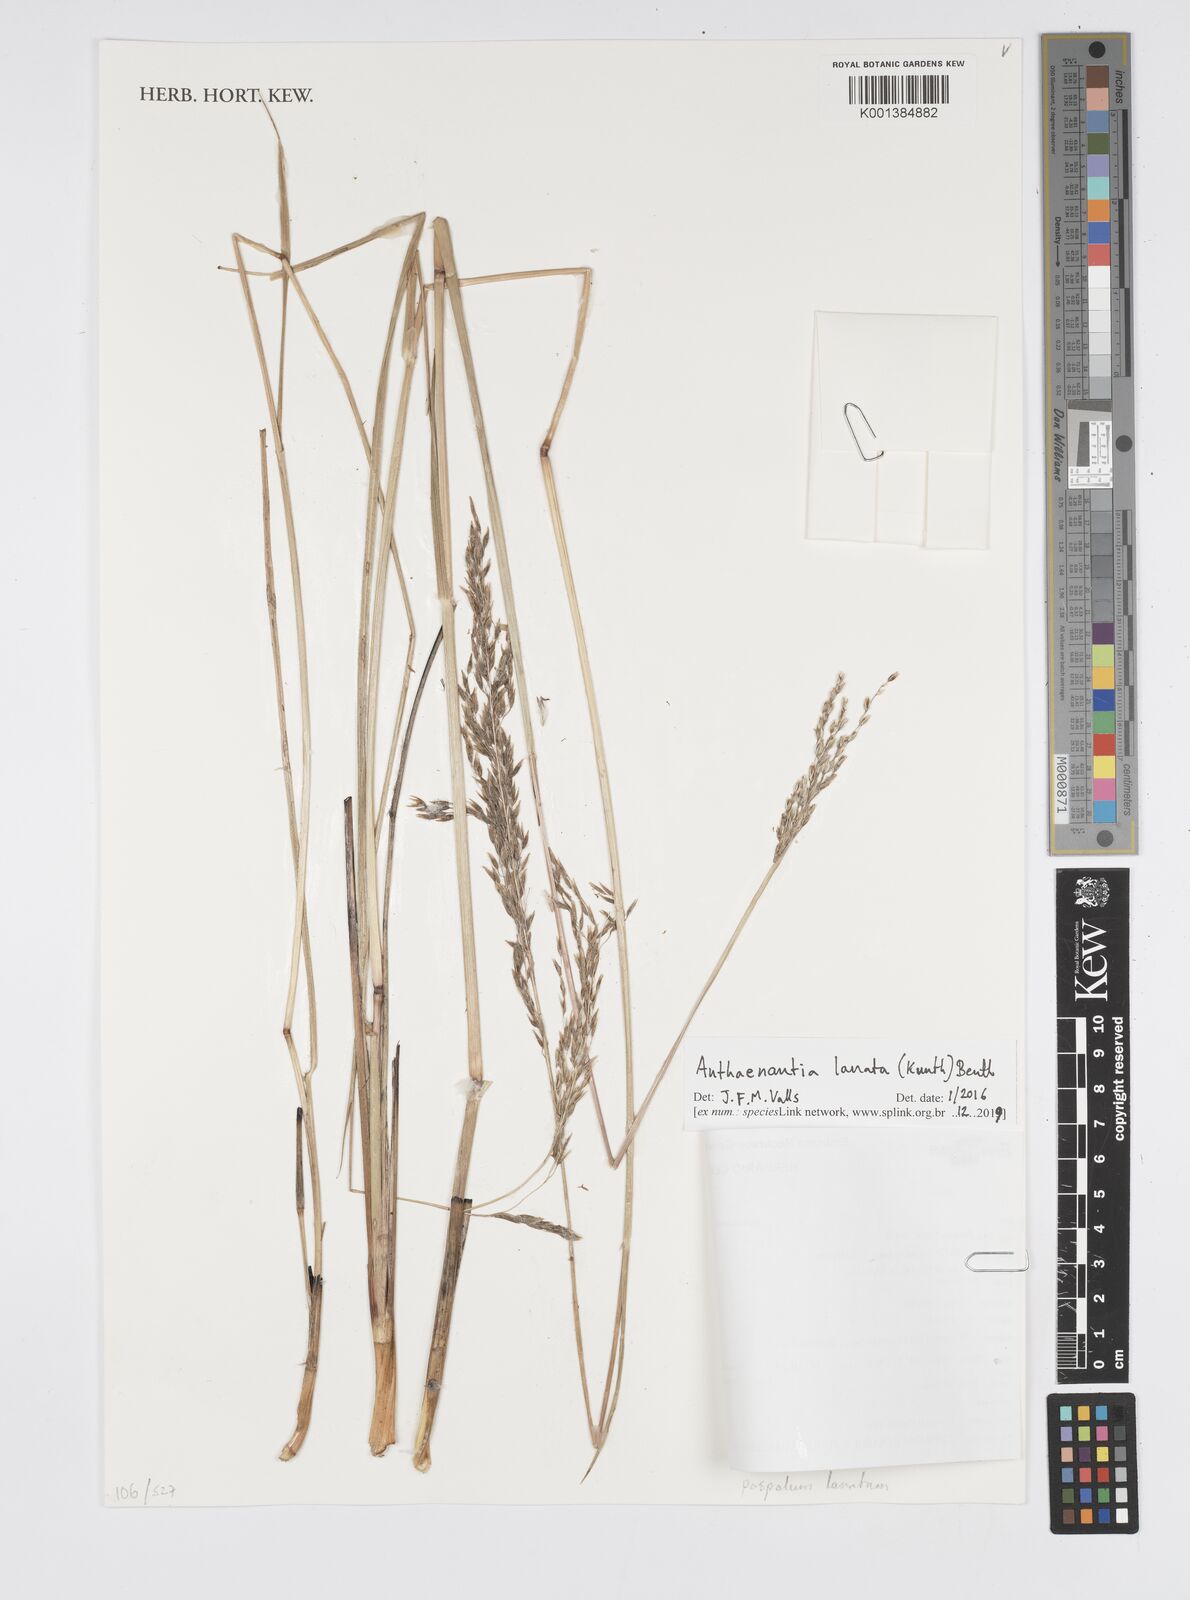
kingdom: Plantae
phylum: Tracheophyta
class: Liliopsida
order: Poales
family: Poaceae
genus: Anthenantia
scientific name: Anthenantia lanata
